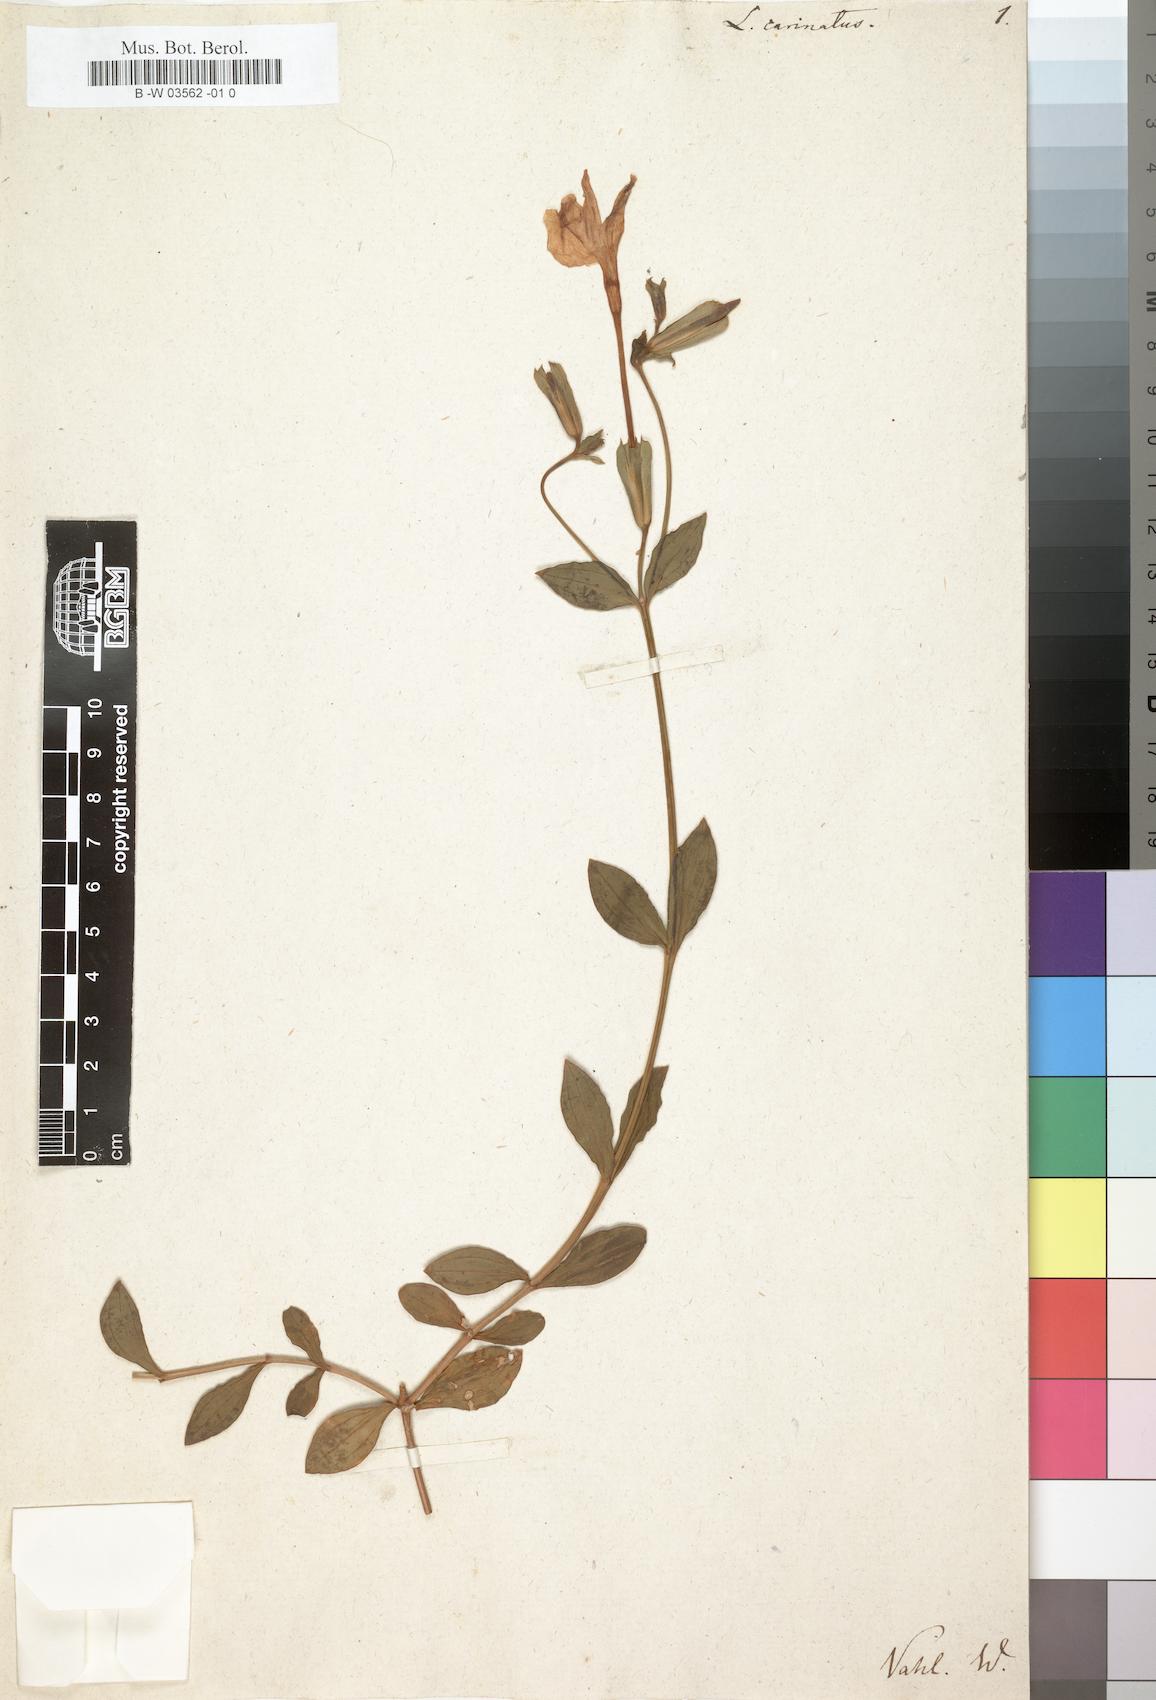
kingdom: Plantae
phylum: Tracheophyta
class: Magnoliopsida
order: Gentianales
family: Gentianaceae
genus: Tachiadenus
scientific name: Tachiadenus carinatus
